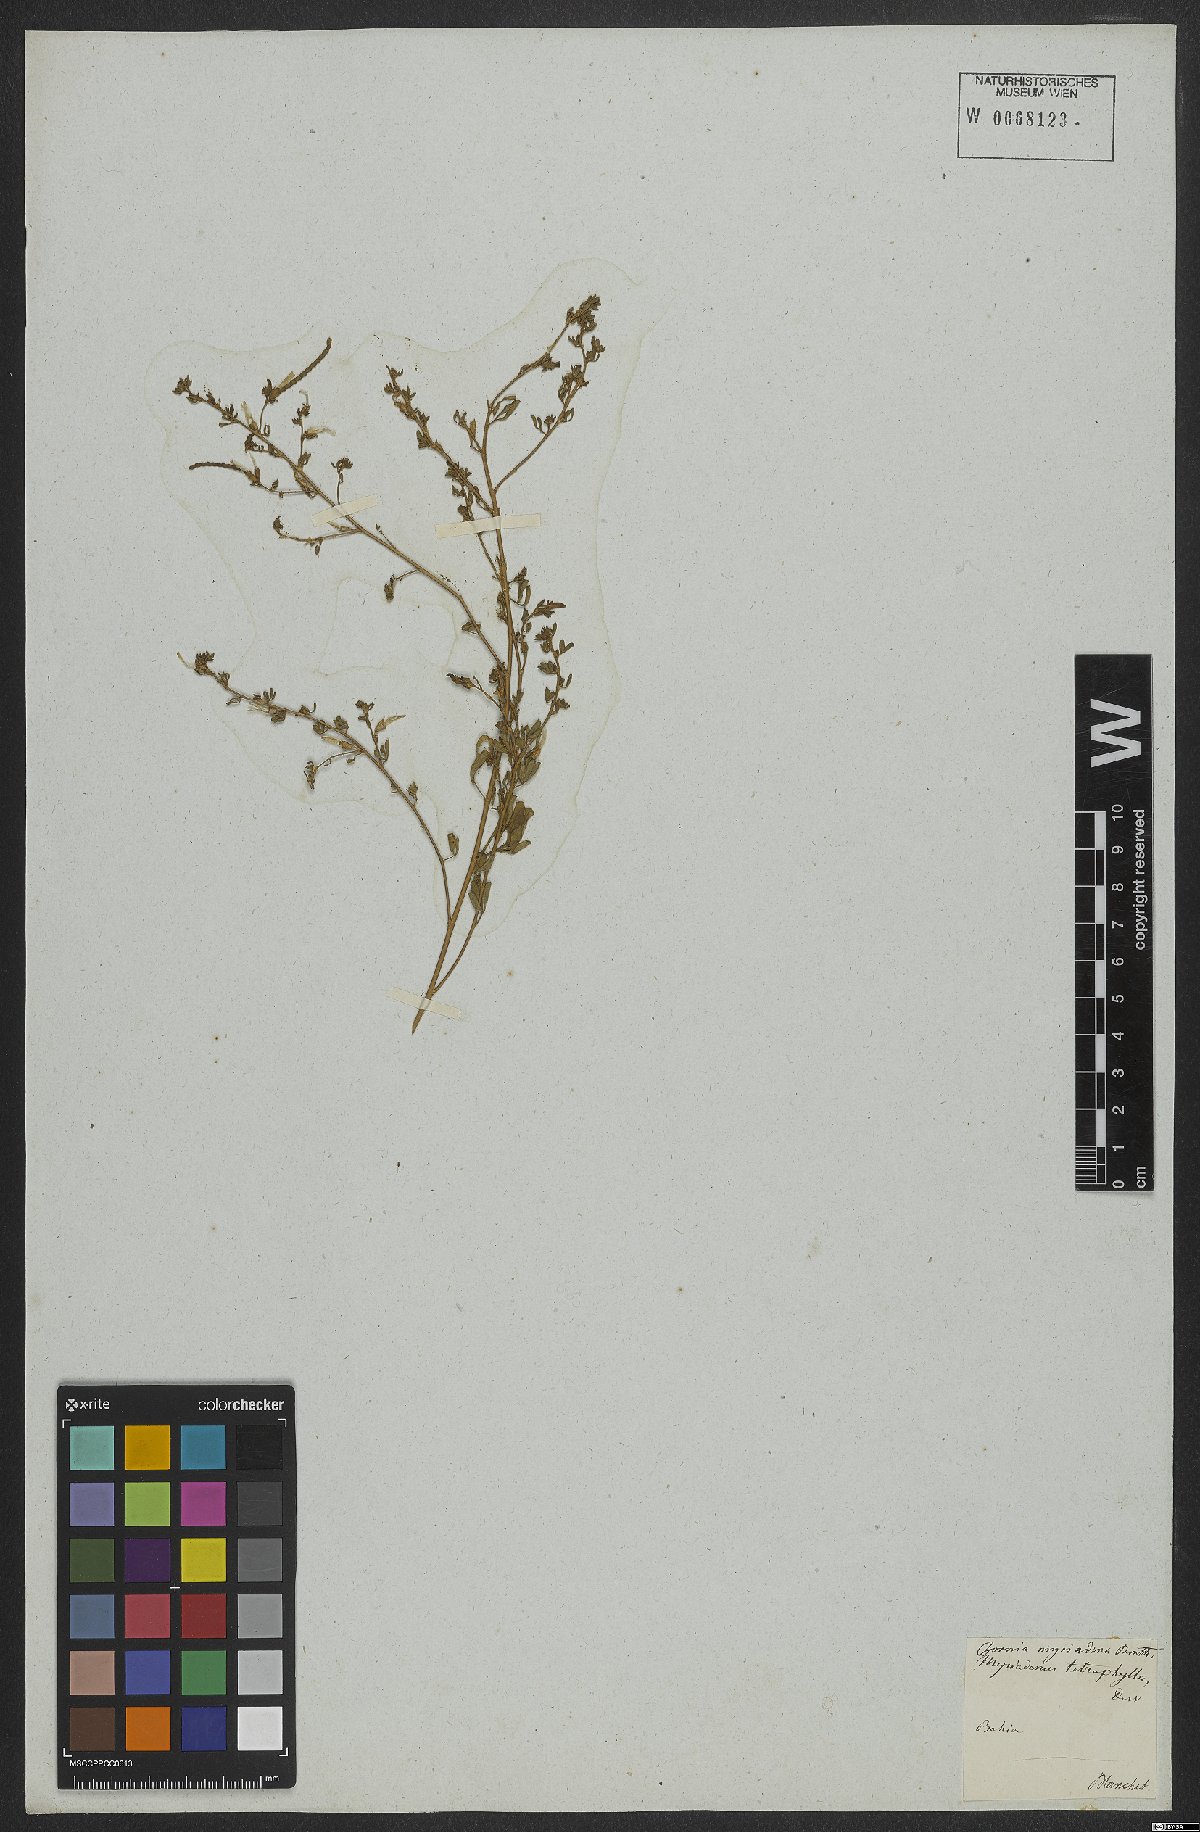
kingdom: Plantae
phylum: Tracheophyta
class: Magnoliopsida
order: Fabales
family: Fabaceae
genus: Zornia
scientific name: Zornia myriadena
